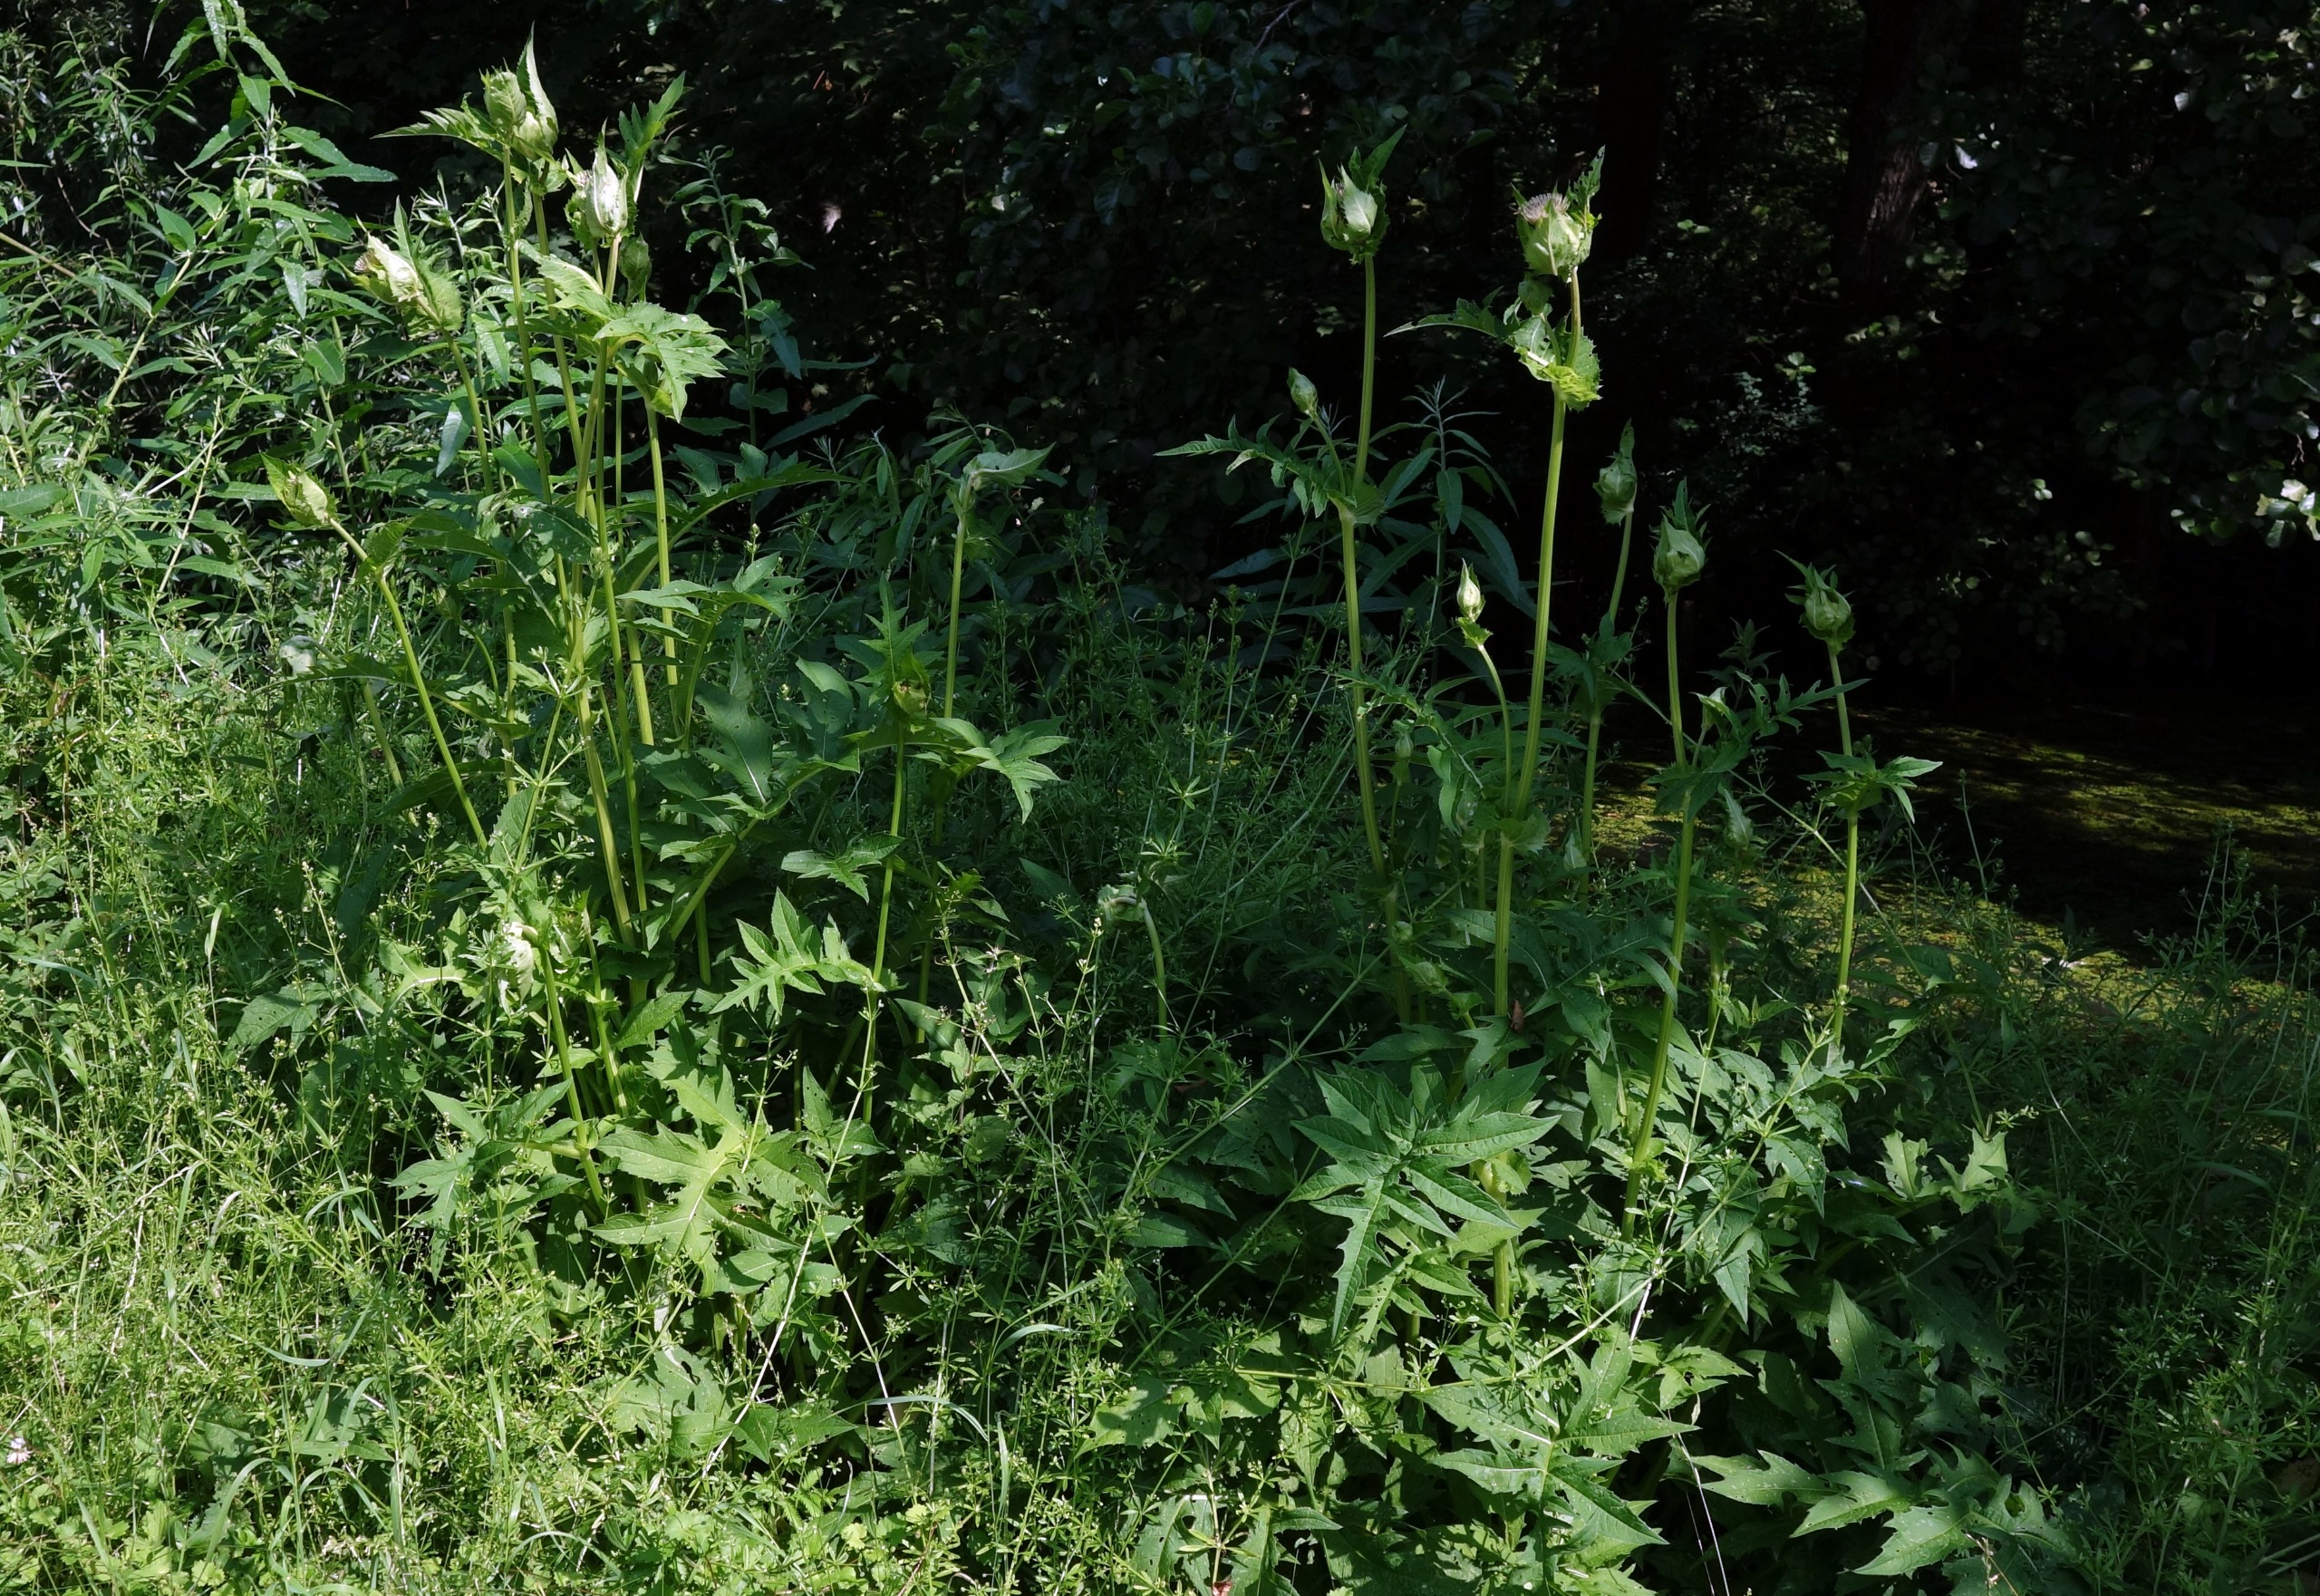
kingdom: Plantae
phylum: Tracheophyta
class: Magnoliopsida
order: Asterales
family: Asteraceae
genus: Cirsium
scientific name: Cirsium oleraceum
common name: Kål-tidsel
